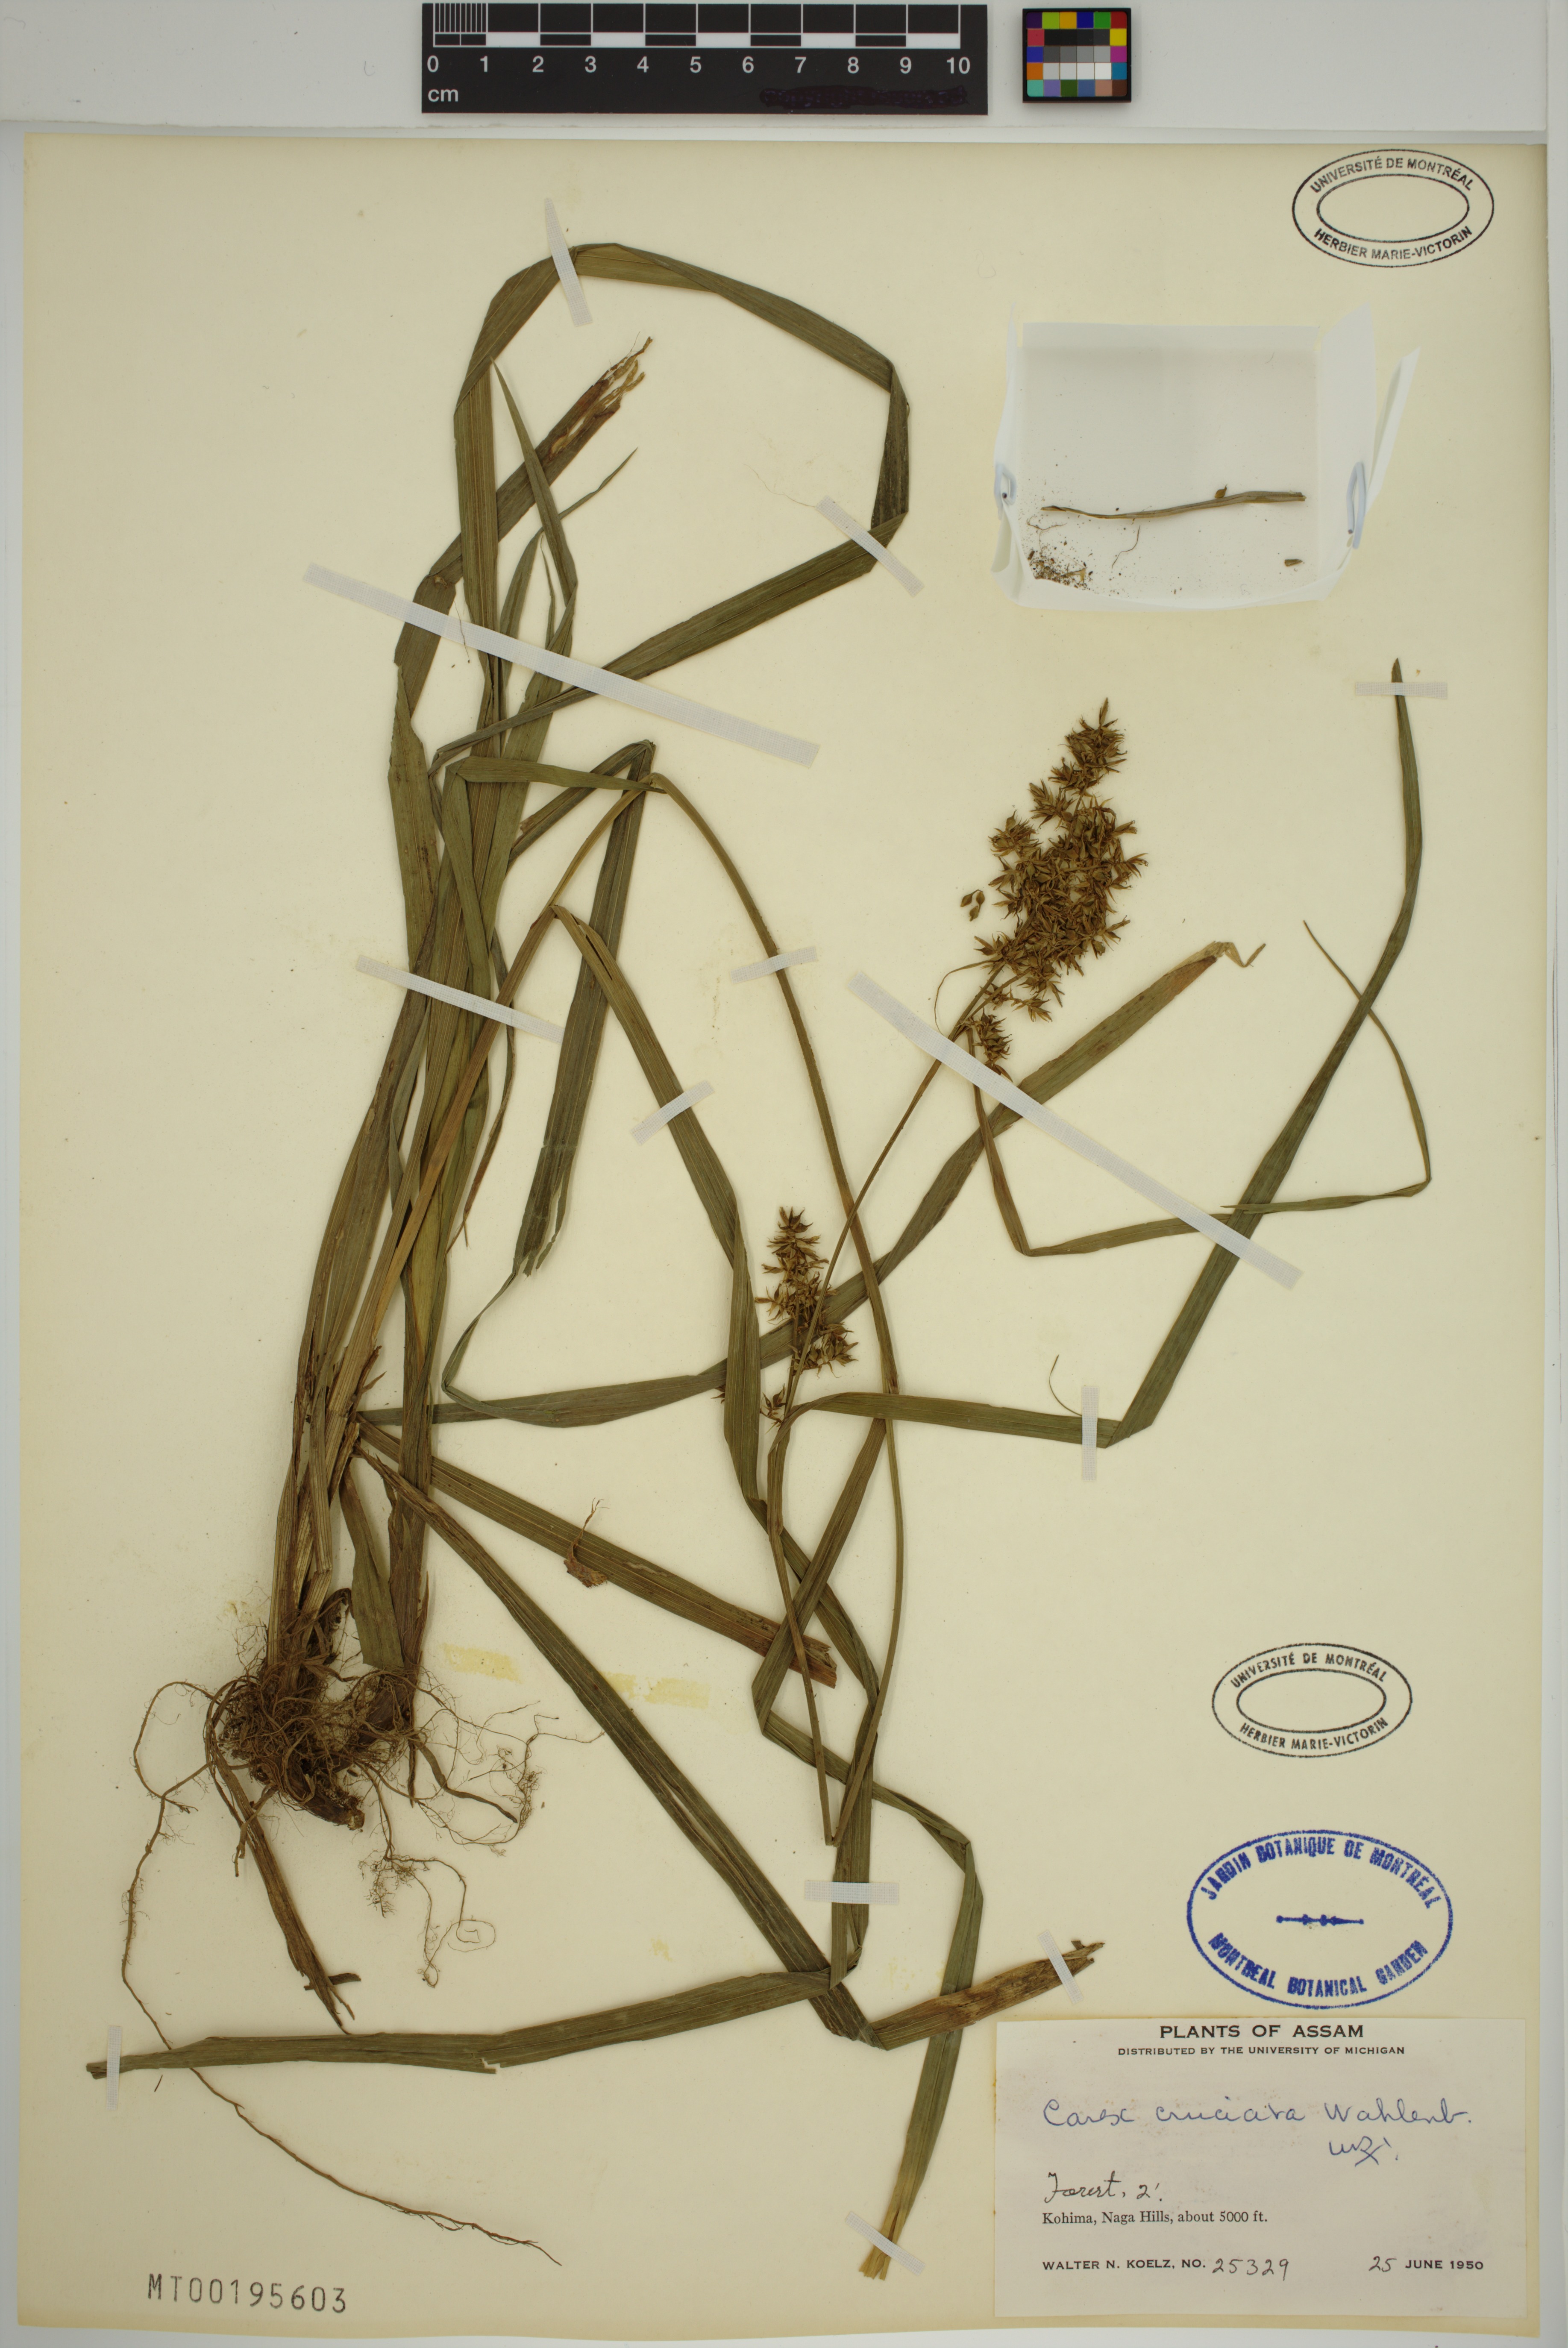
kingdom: Plantae
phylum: Tracheophyta
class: Liliopsida
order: Poales
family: Cyperaceae
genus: Carex
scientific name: Carex cruciata
